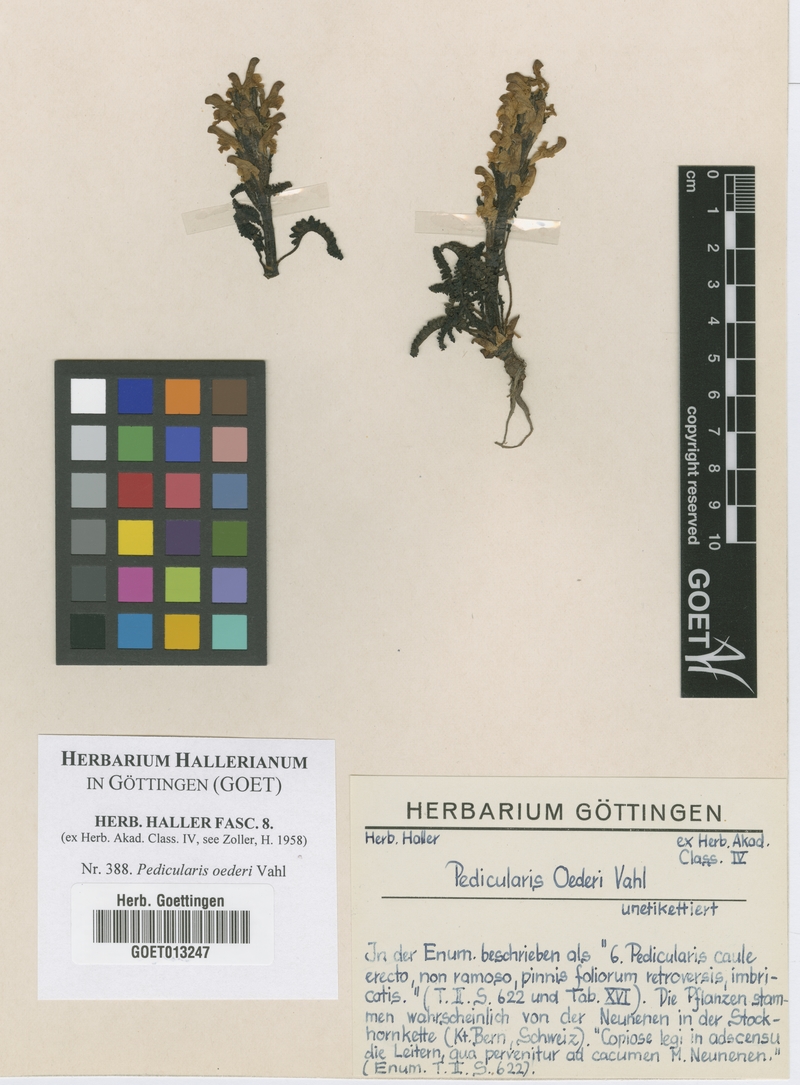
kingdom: Plantae
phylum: Tracheophyta
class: Magnoliopsida
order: Lamiales
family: Orobanchaceae
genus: Pedicularis
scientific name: Pedicularis oederi
